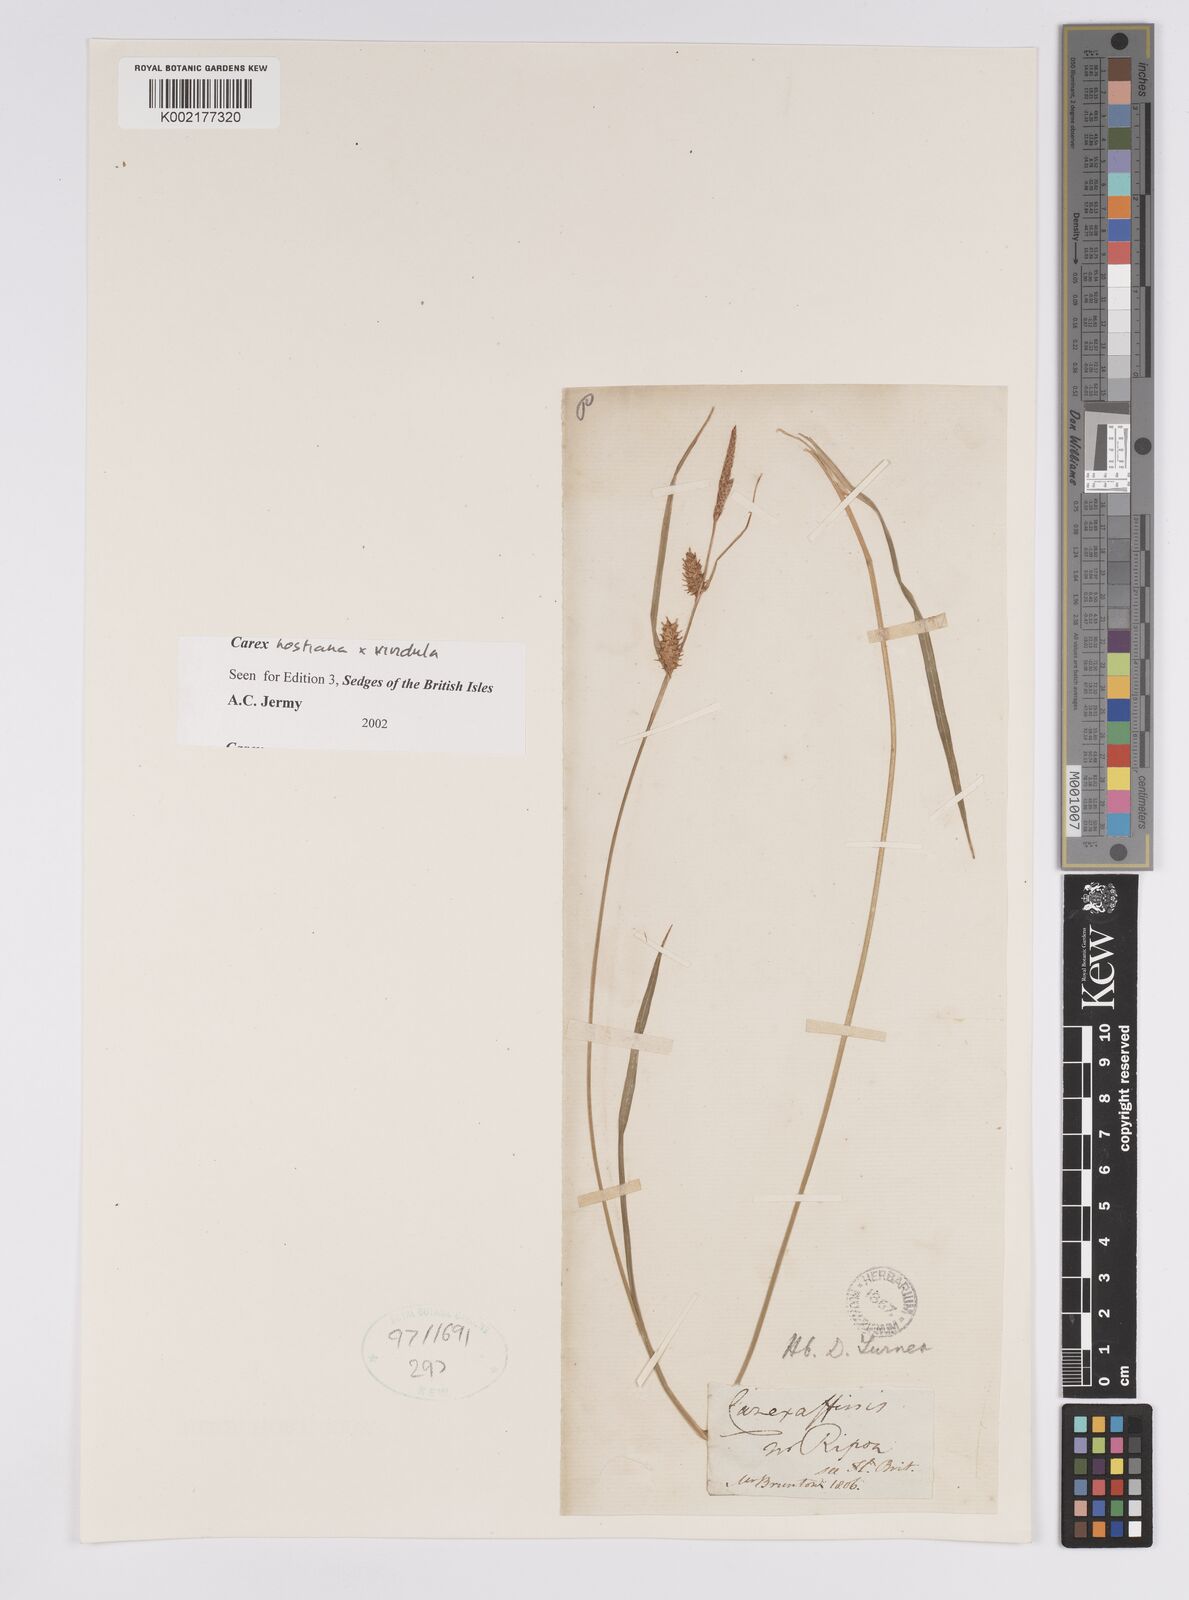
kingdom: Plantae
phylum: Tracheophyta
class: Liliopsida
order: Poales
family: Cyperaceae
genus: Carex
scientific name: Carex hostiana
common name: Tawny sedge
